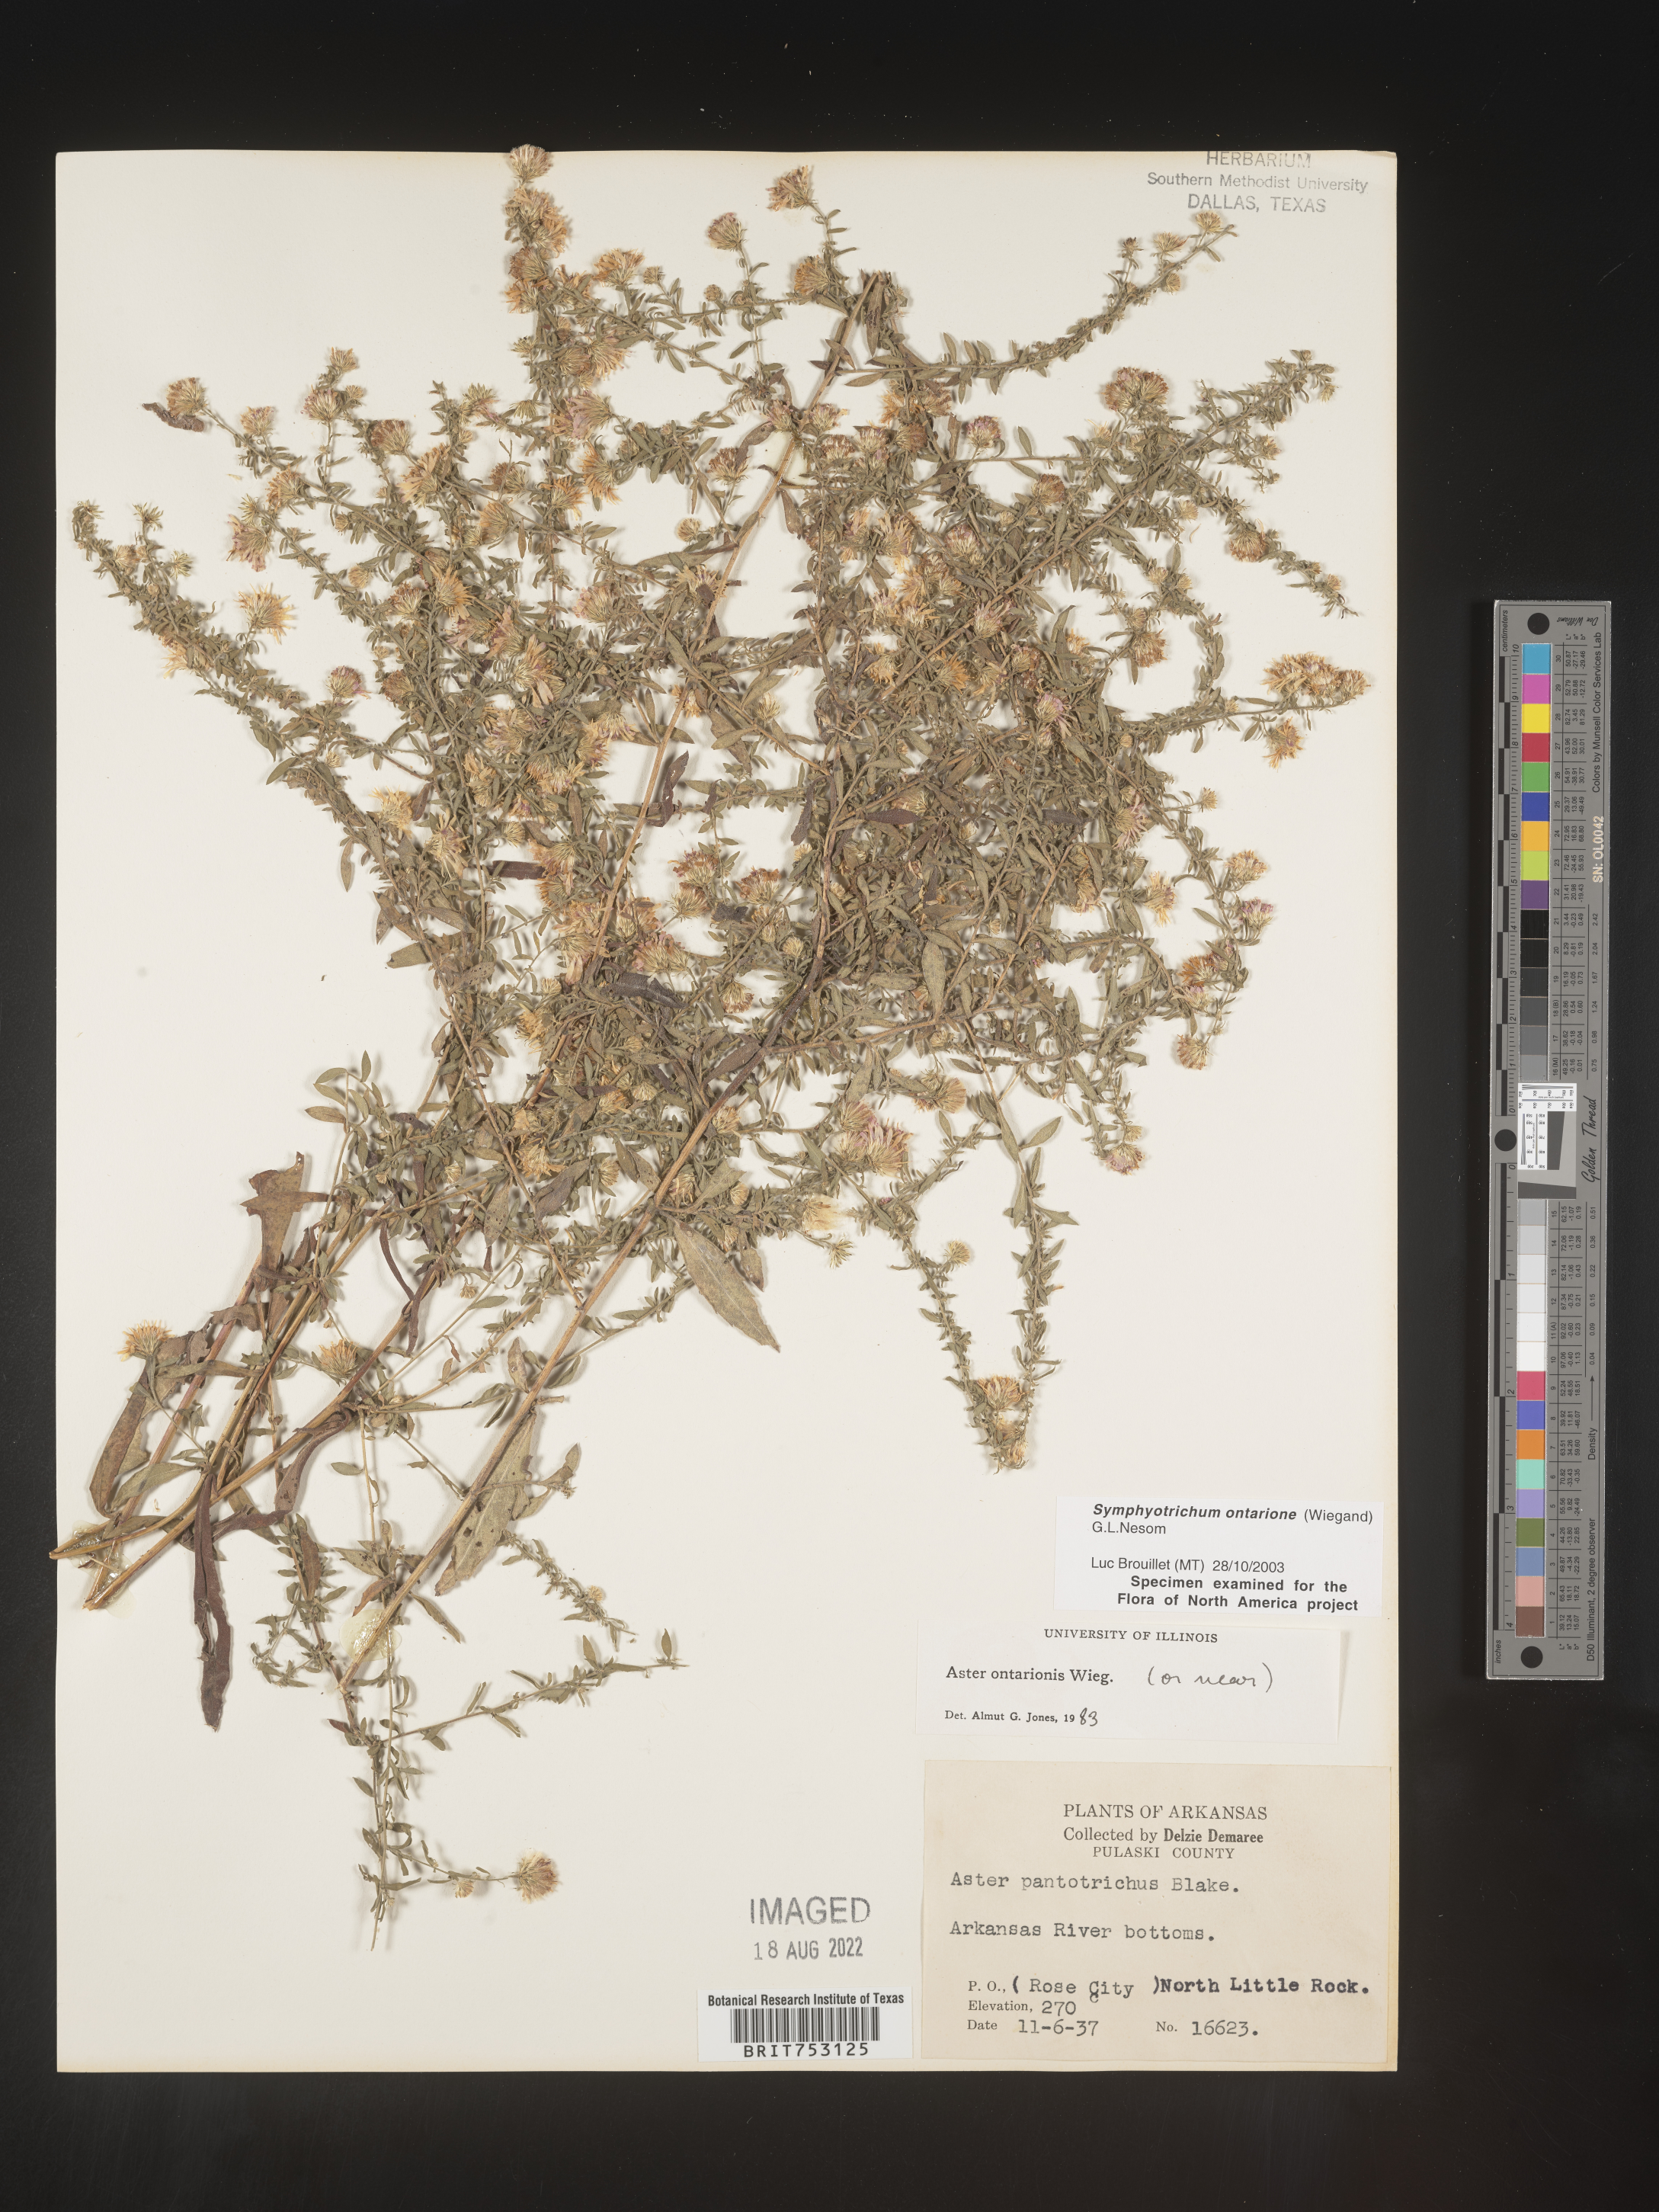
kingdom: Plantae
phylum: Tracheophyta
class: Magnoliopsida
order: Asterales
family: Asteraceae
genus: Symphyotrichum
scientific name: Symphyotrichum ontarionis
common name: Bottomland aster
